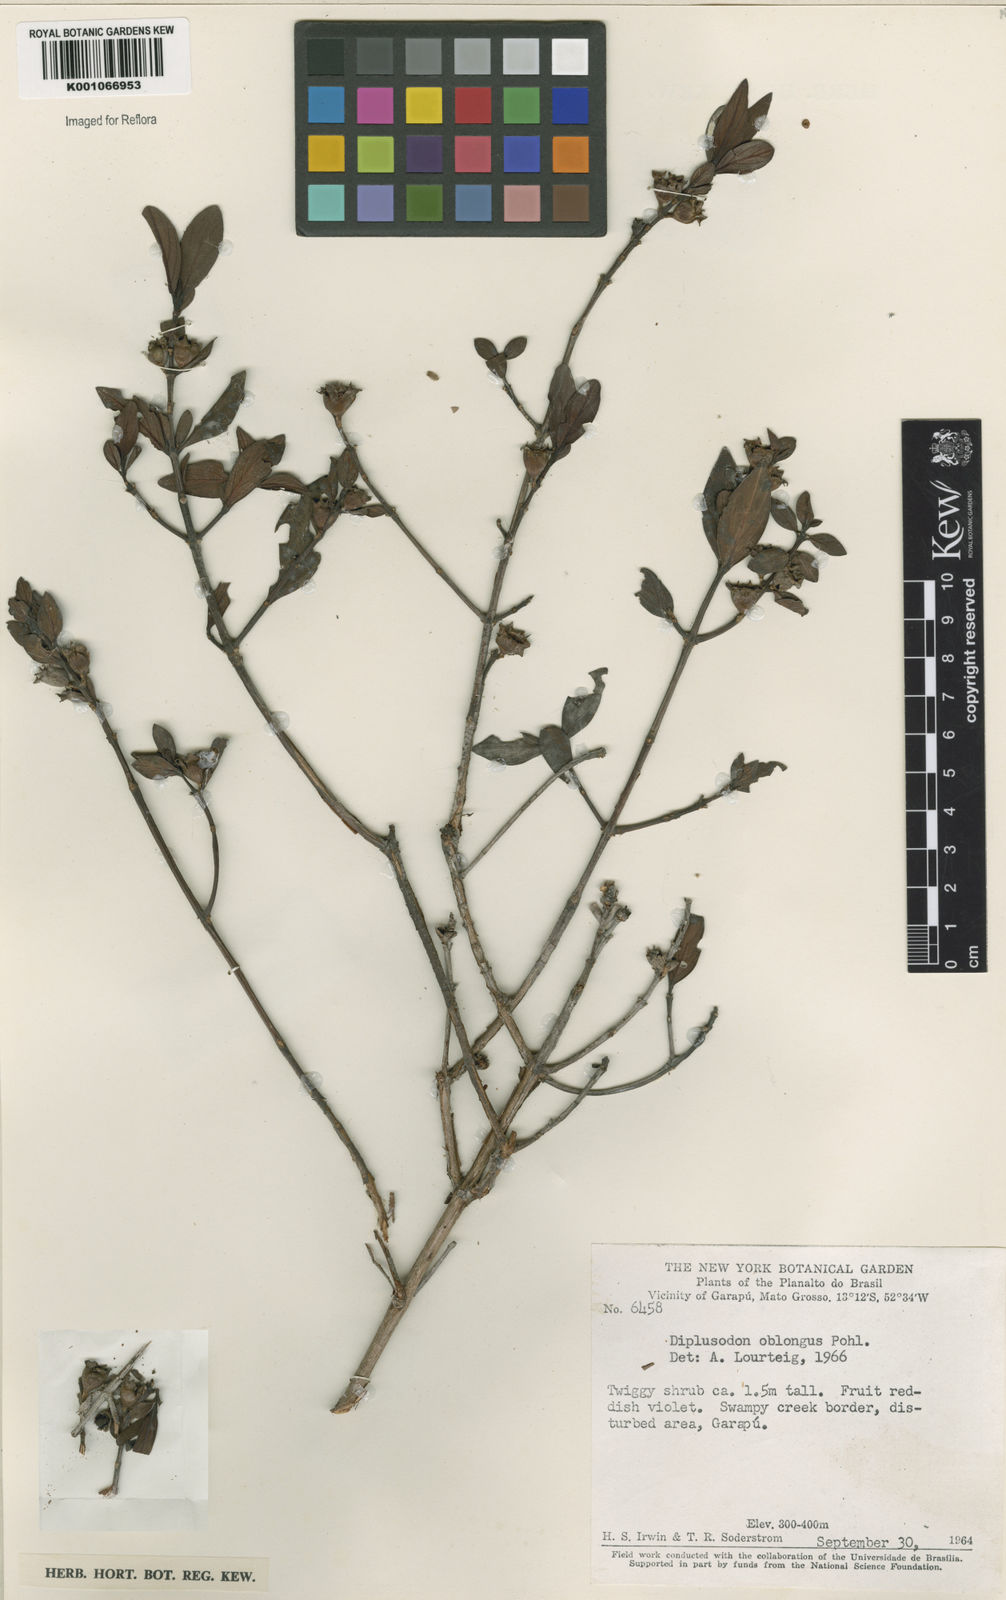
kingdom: Plantae
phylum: Tracheophyta
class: Magnoliopsida
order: Myrtales
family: Lythraceae
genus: Diplusodon
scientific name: Diplusodon oblongus
